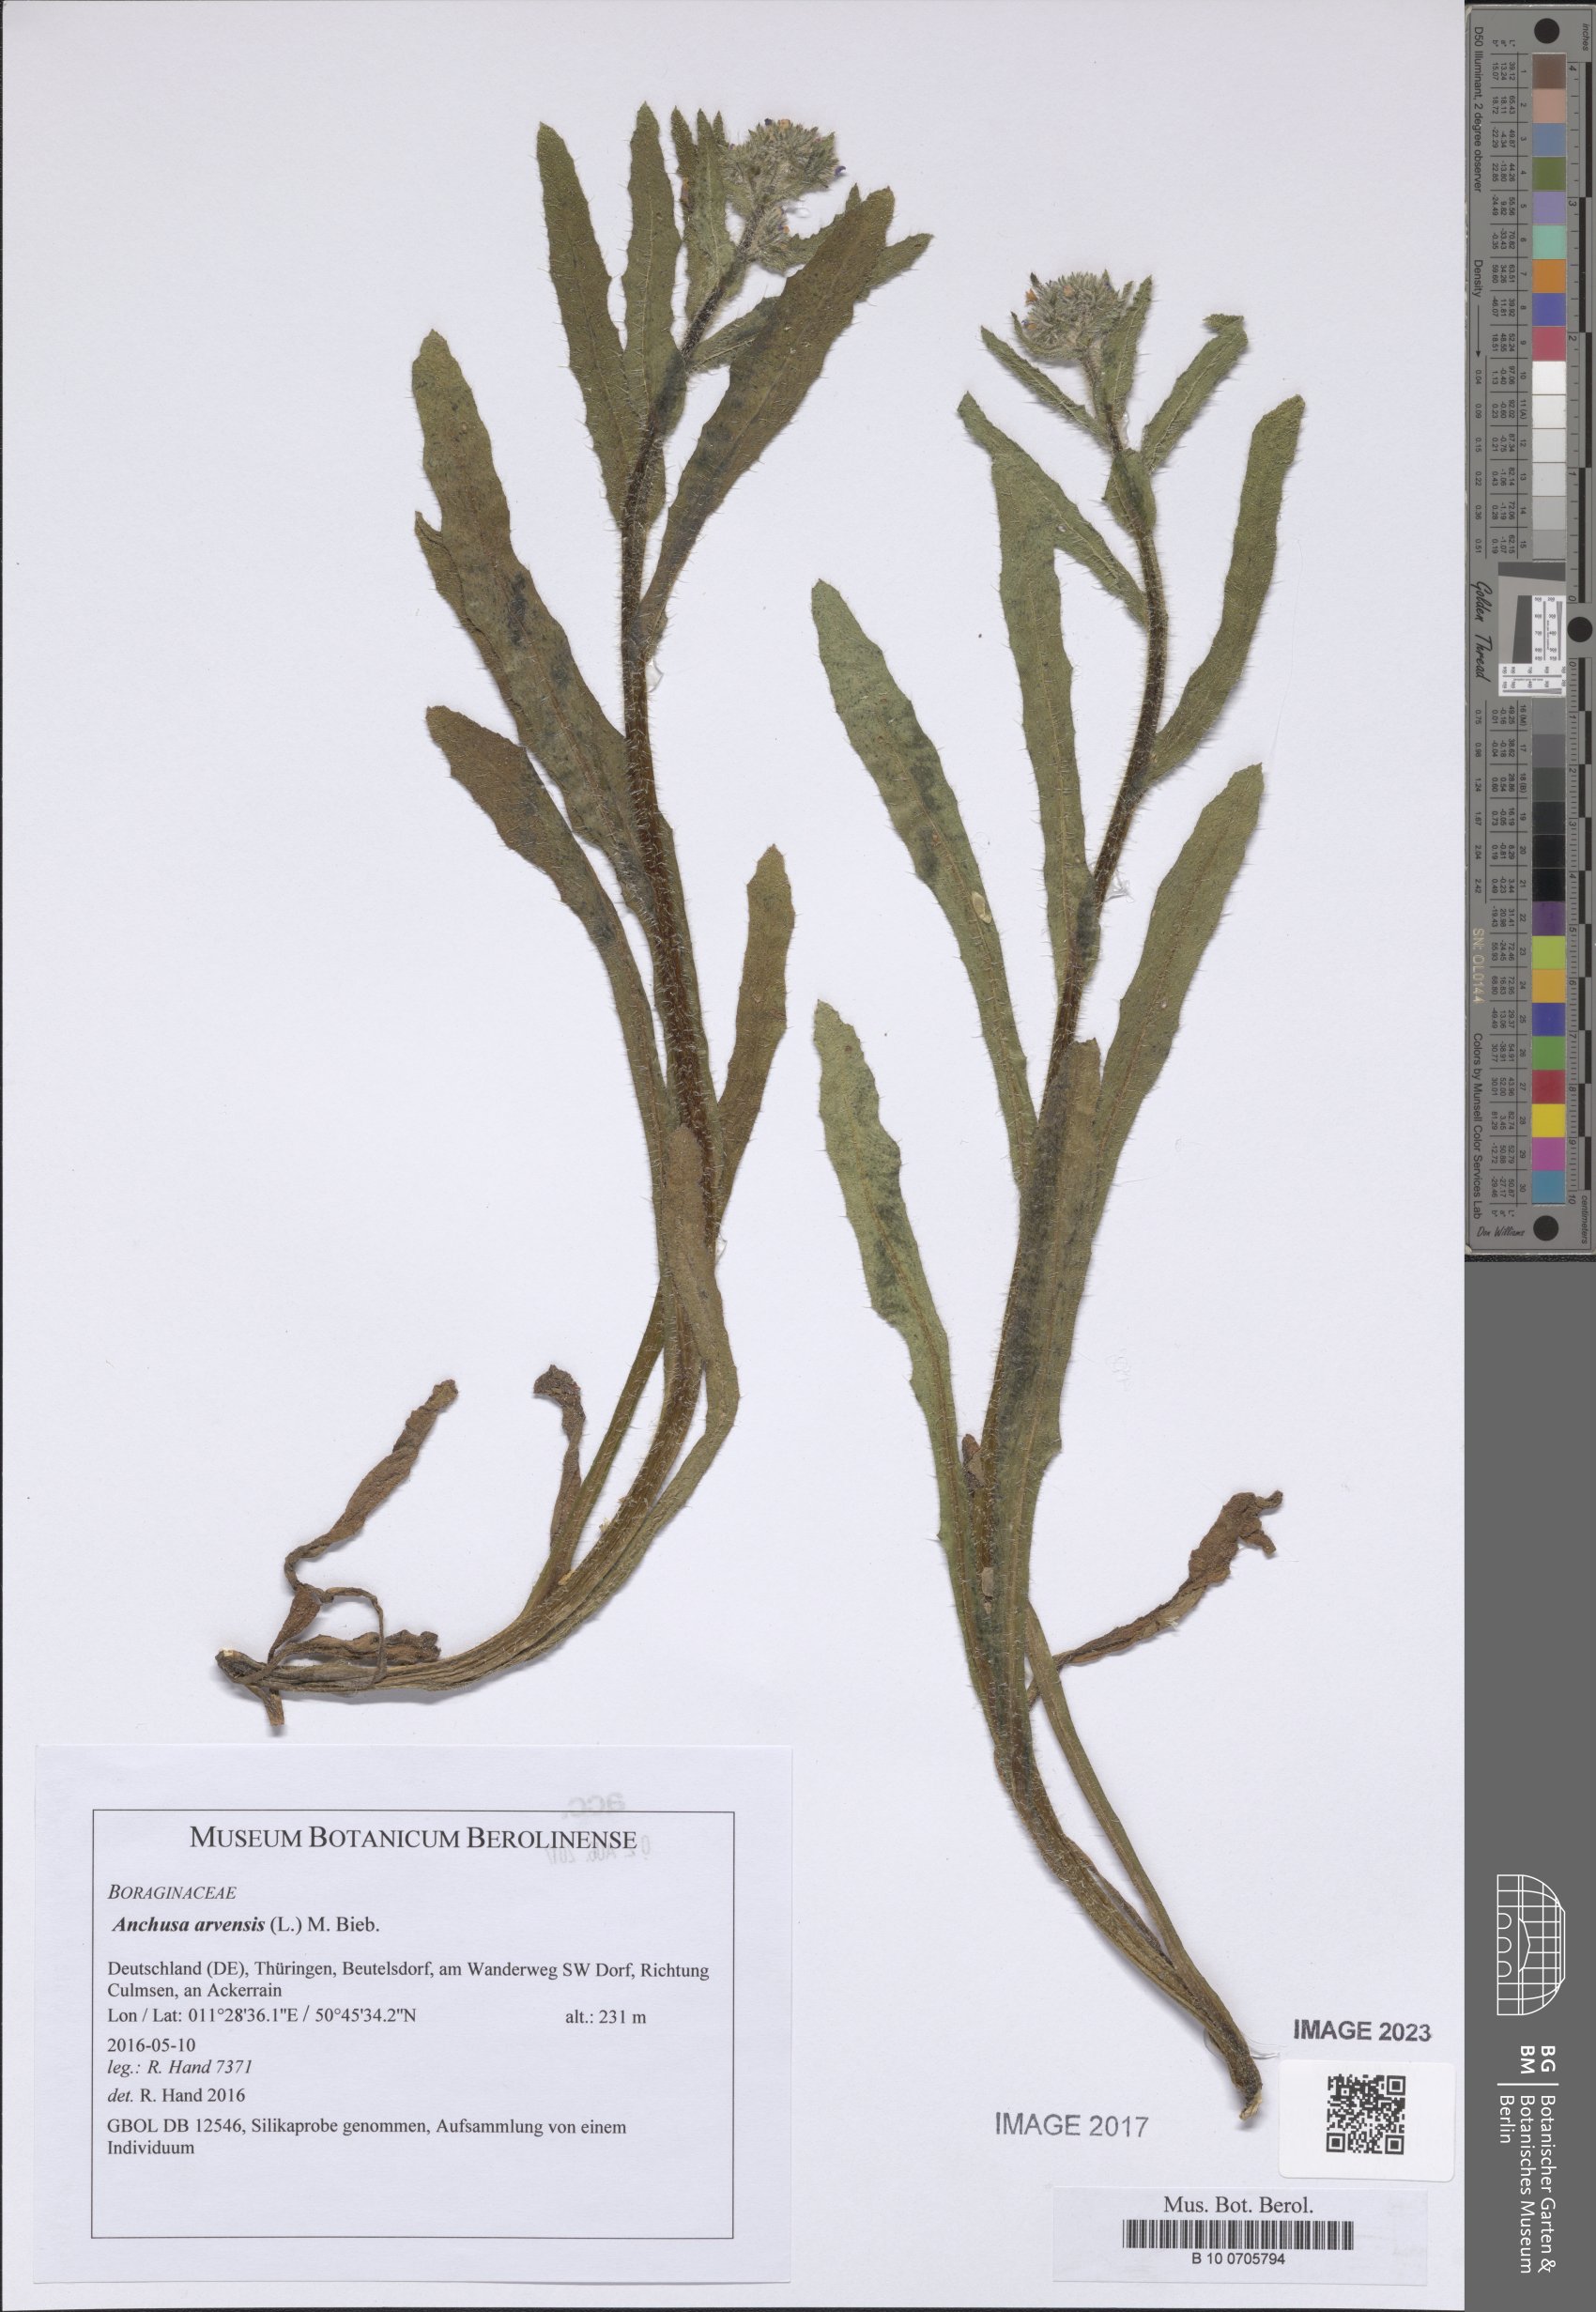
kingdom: Plantae
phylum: Tracheophyta
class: Magnoliopsida
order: Boraginales
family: Boraginaceae
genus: Lycopsis
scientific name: Lycopsis arvensis
